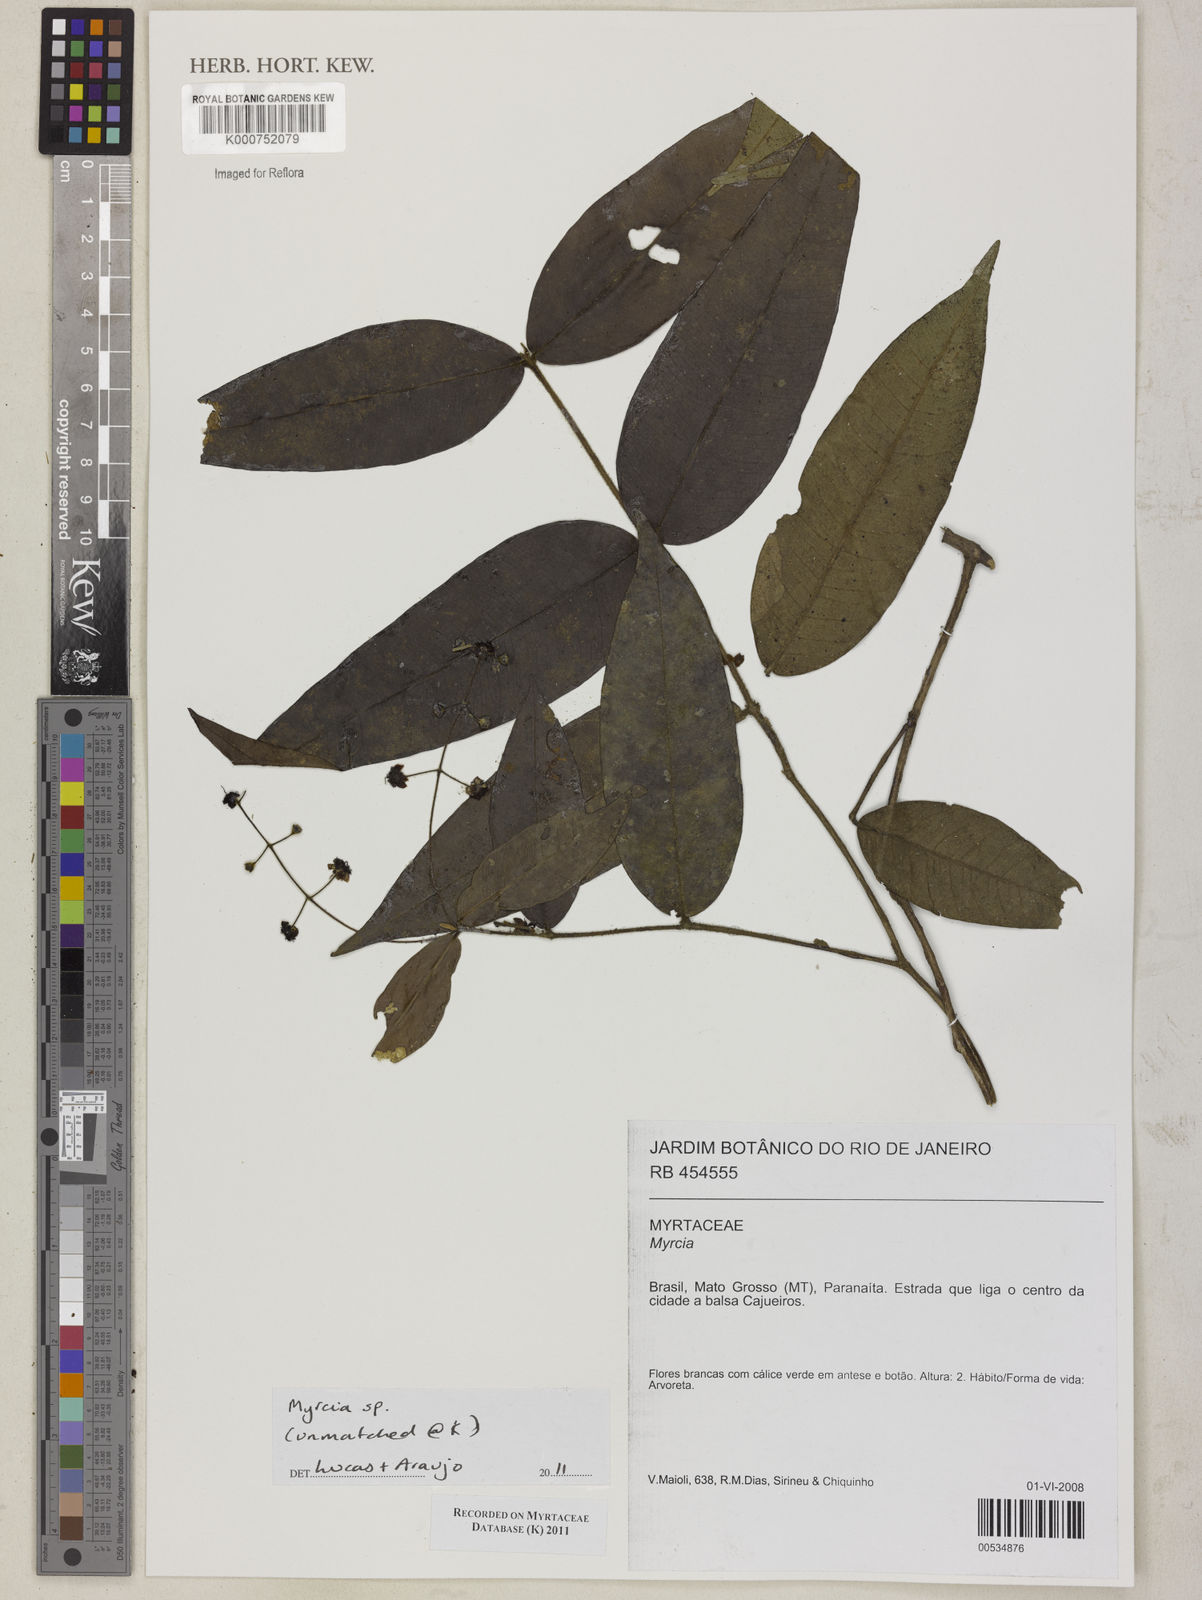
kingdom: Plantae
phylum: Tracheophyta
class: Magnoliopsida
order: Myrtales
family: Myrtaceae
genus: Myrcia
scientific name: Myrcia
